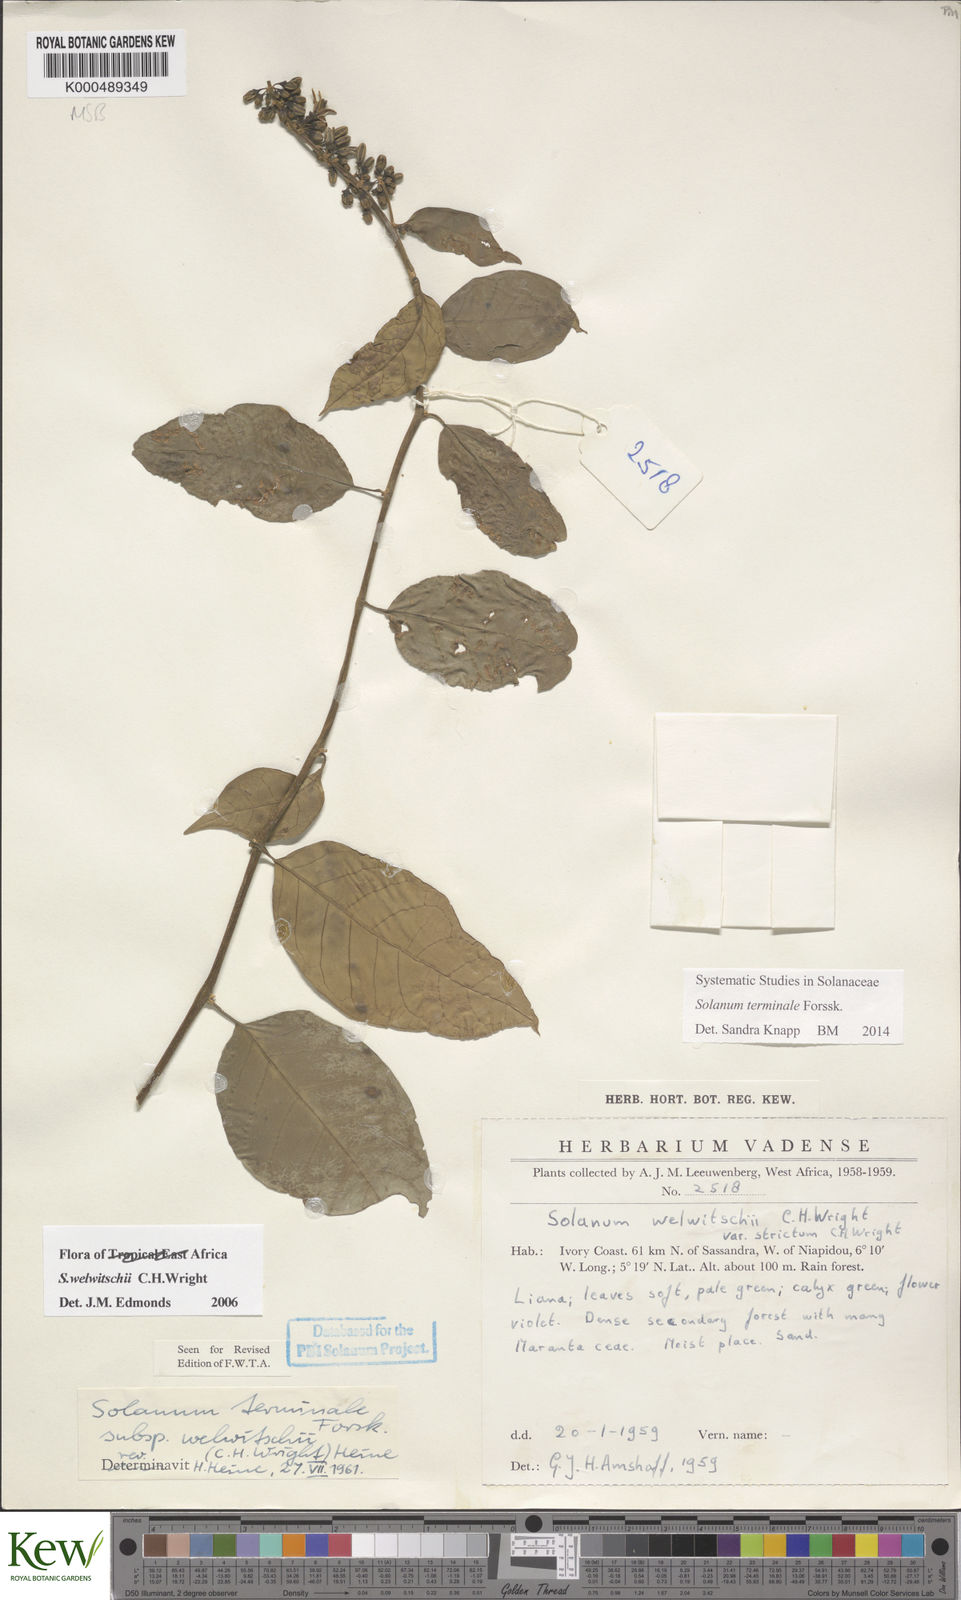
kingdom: Plantae
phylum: Tracheophyta
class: Magnoliopsida
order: Solanales
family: Solanaceae
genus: Solanum
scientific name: Solanum terminale
